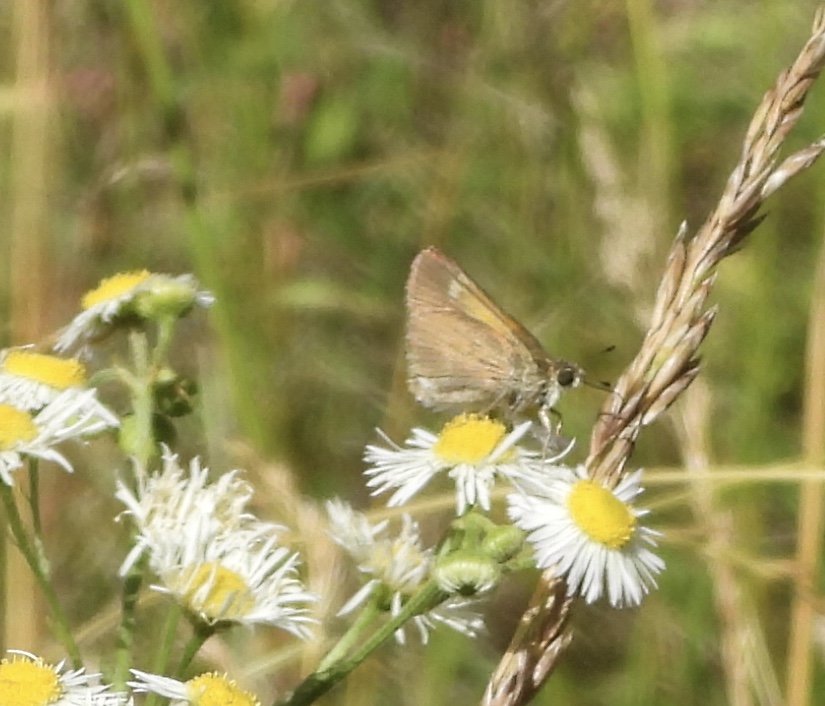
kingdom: Animalia
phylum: Arthropoda
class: Insecta
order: Lepidoptera
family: Hesperiidae
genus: Polites
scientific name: Polites themistocles
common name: Tawny-edged Skipper
